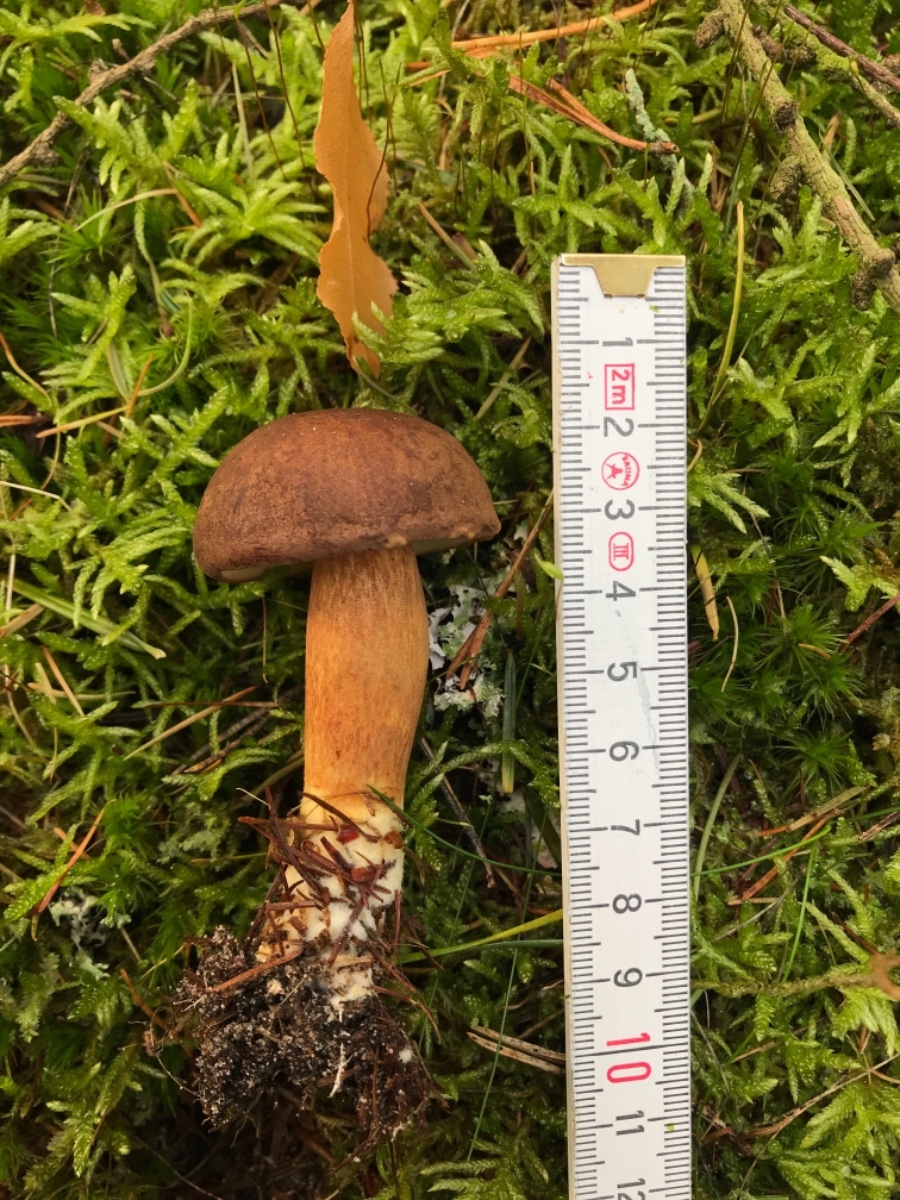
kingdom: Fungi
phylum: Basidiomycota
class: Agaricomycetes
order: Boletales
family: Boletaceae
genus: Imleria
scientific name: Imleria badia
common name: brunstokket rørhat
